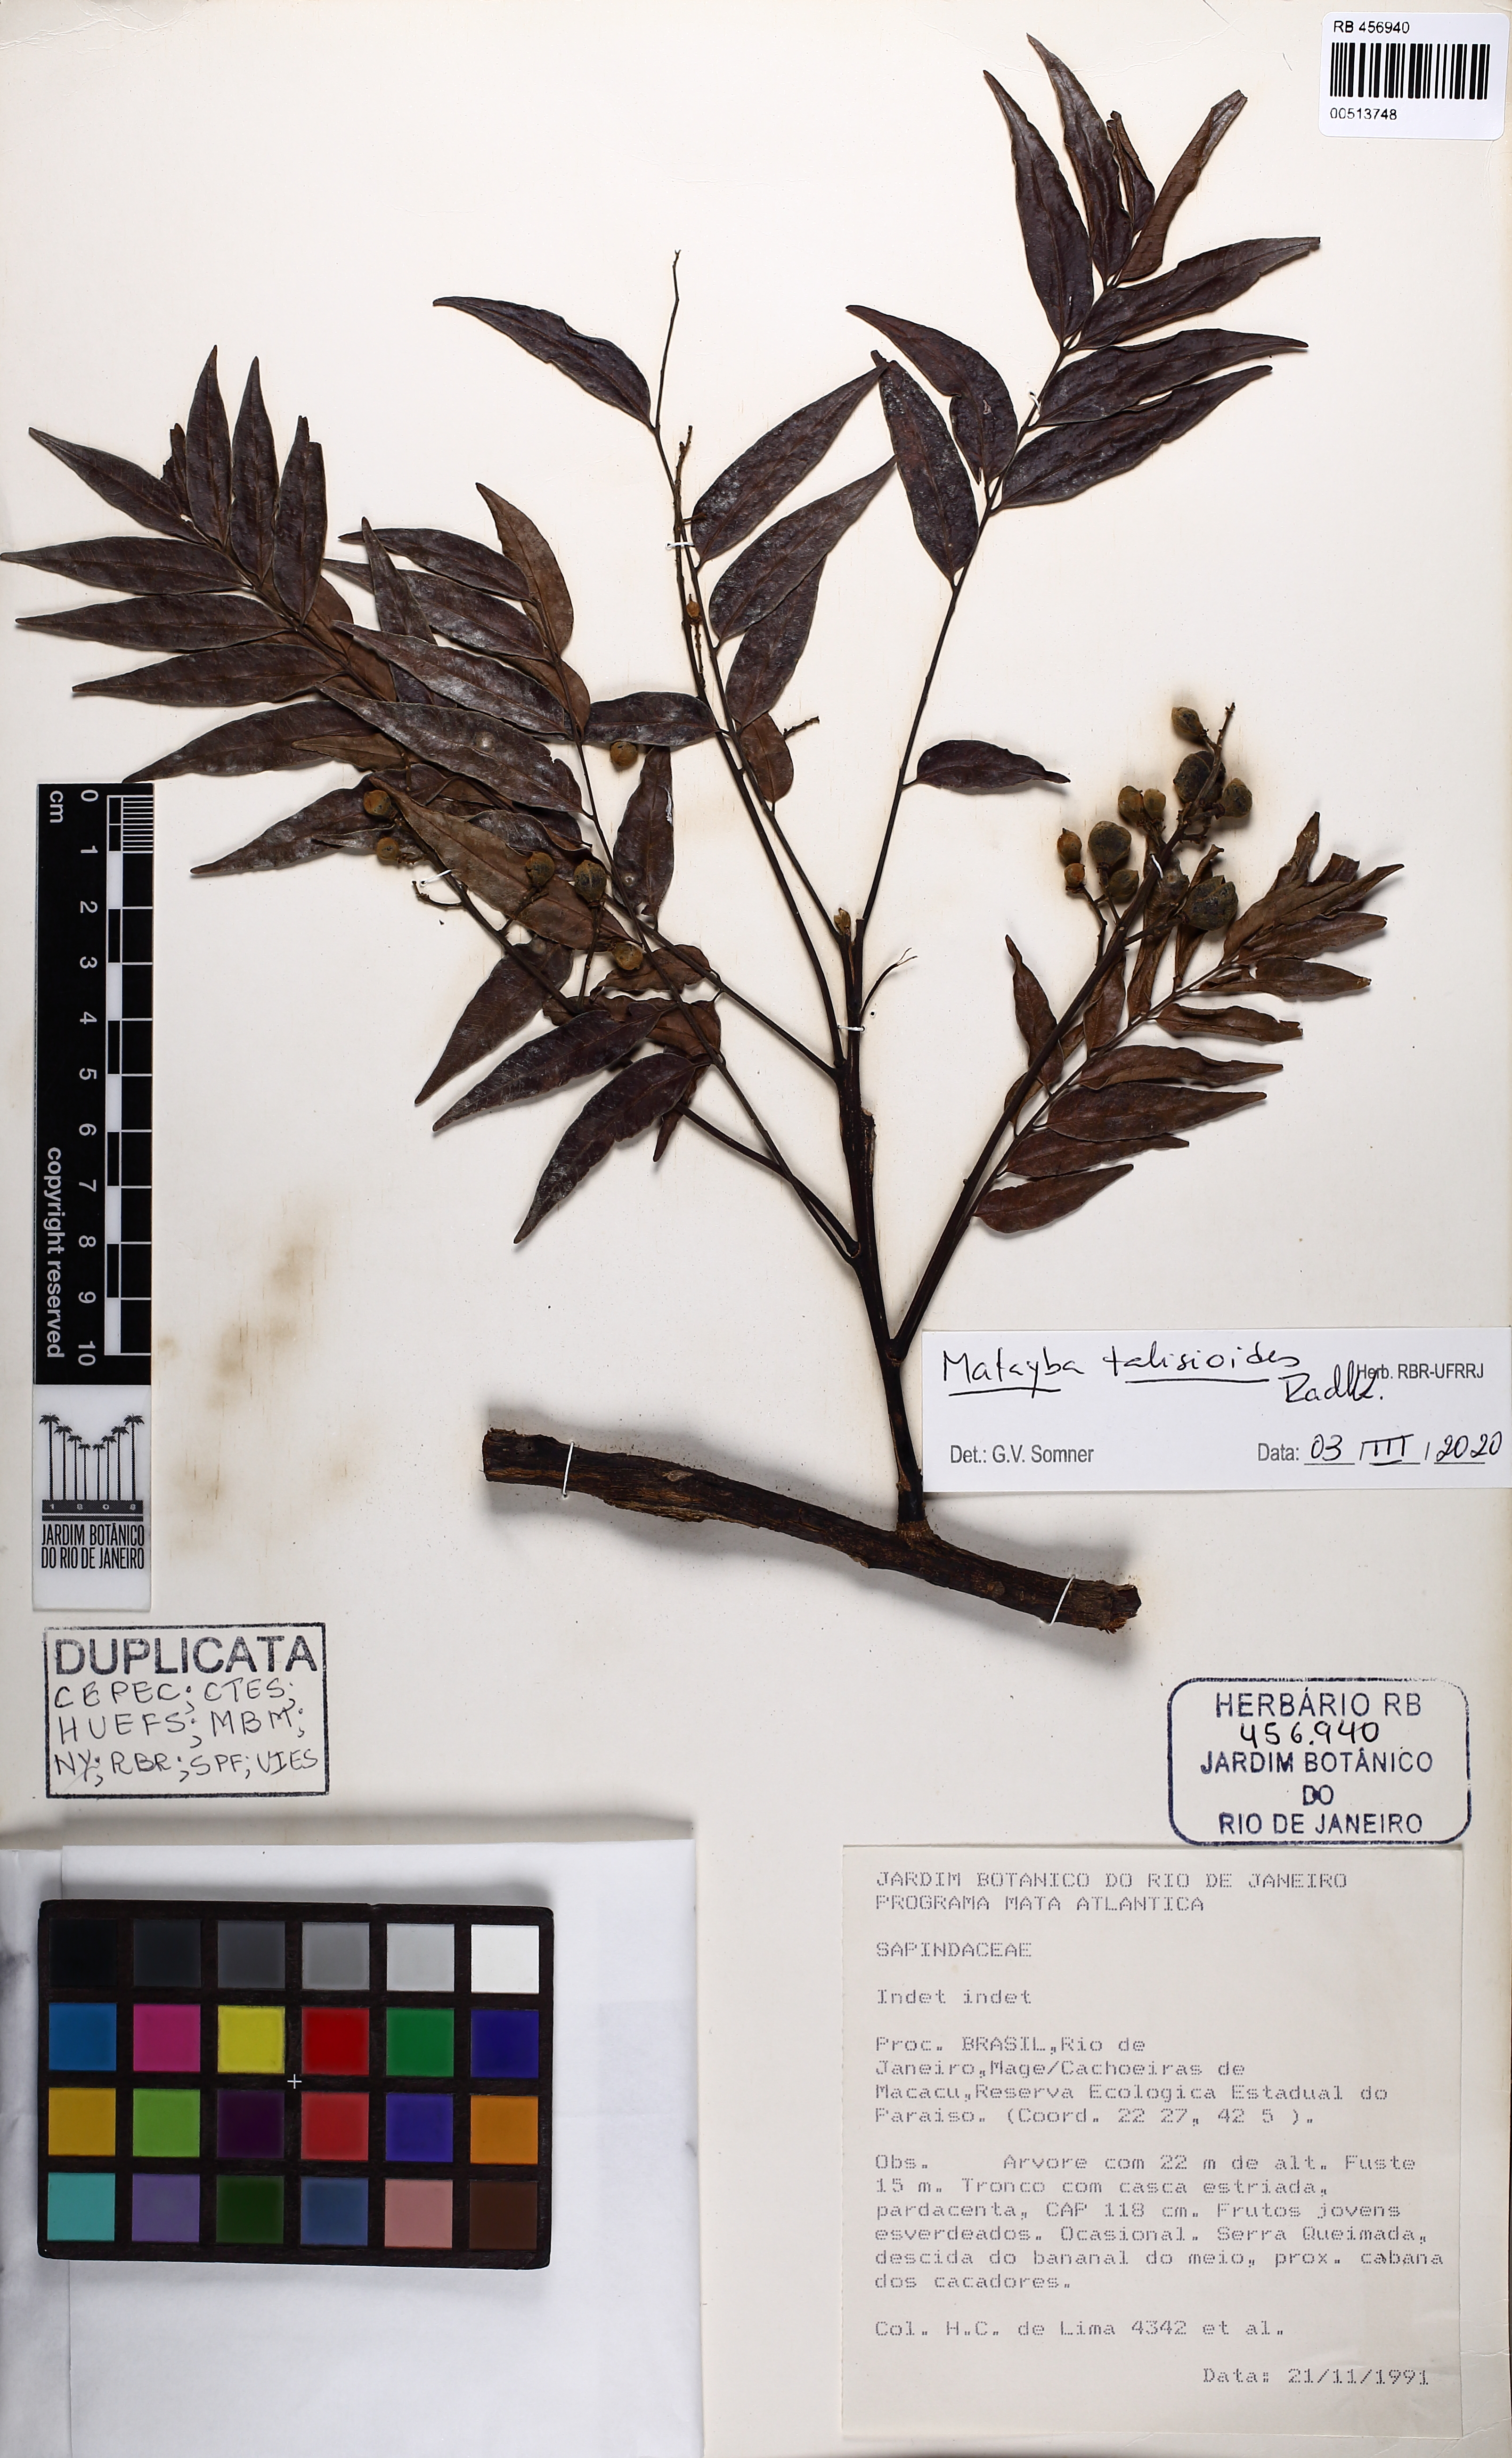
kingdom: Plantae
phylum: Tracheophyta
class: Magnoliopsida
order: Sapindales
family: Sapindaceae
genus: Matayba
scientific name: Matayba talisioides
